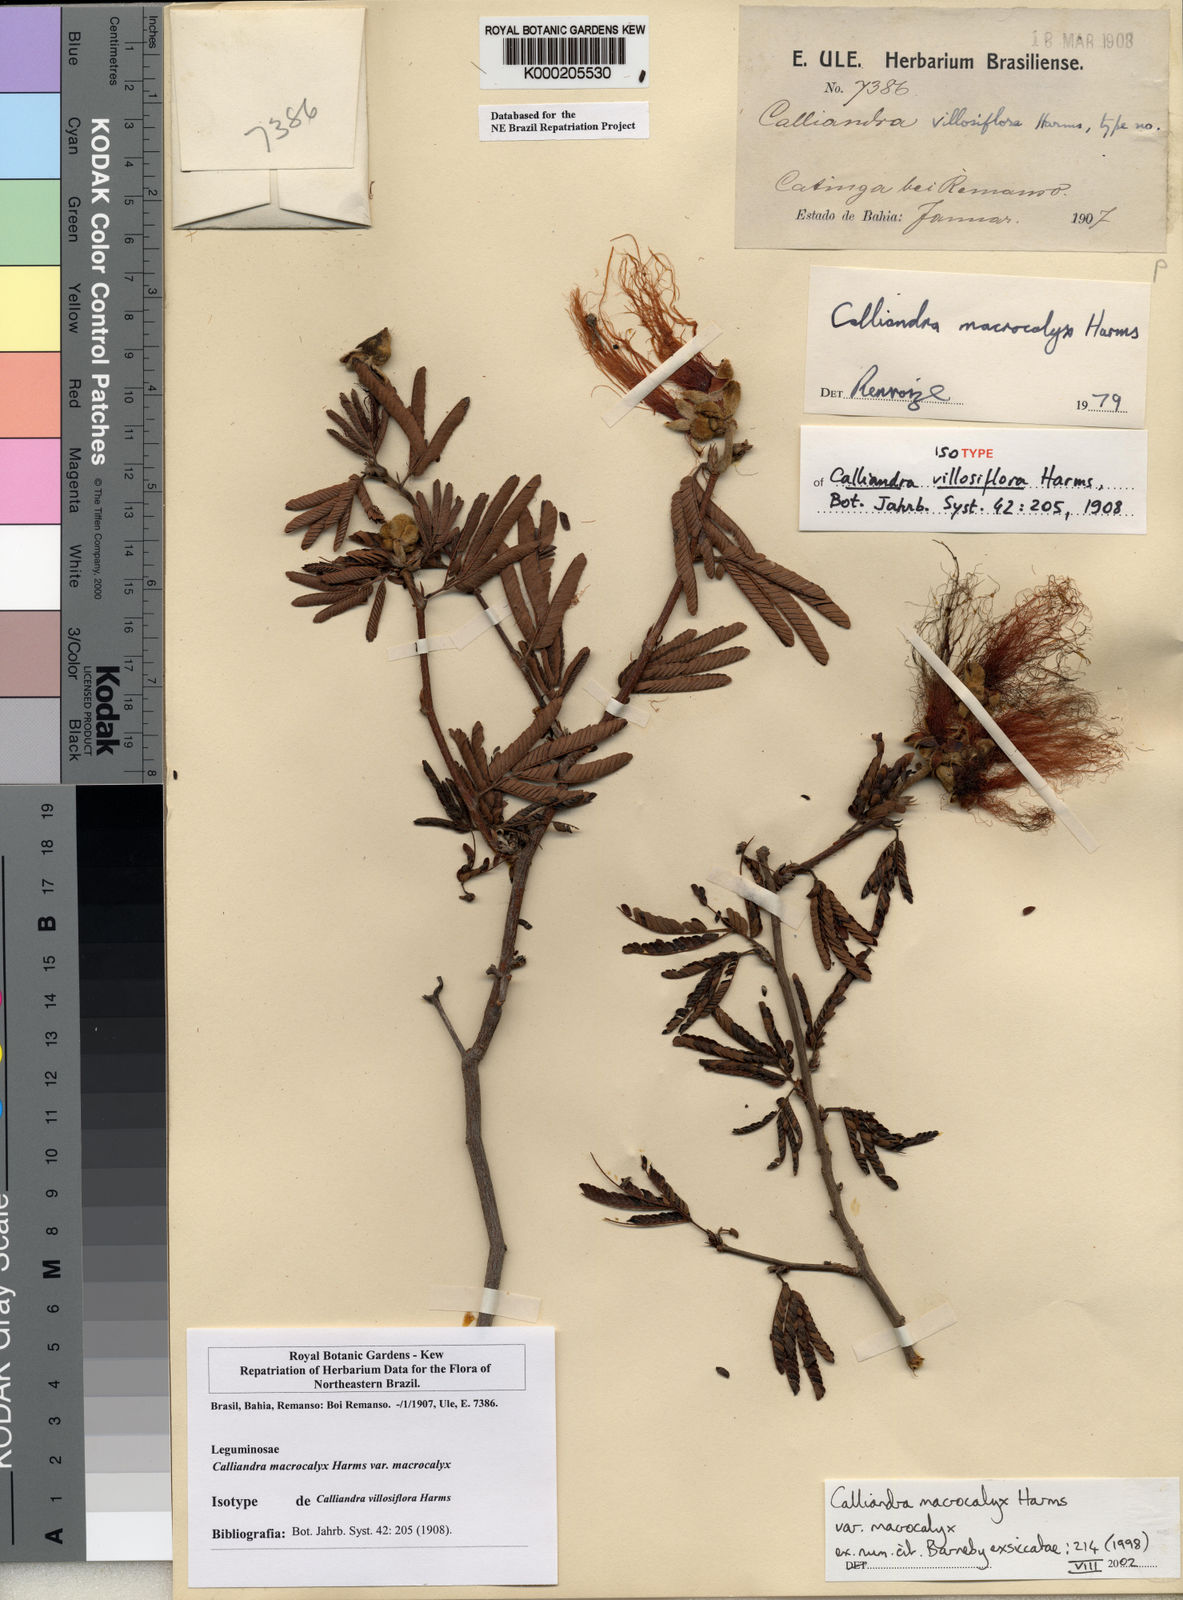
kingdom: Plantae
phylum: Tracheophyta
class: Magnoliopsida
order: Fabales
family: Fabaceae
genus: Calliandra
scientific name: Calliandra macrocalyx
